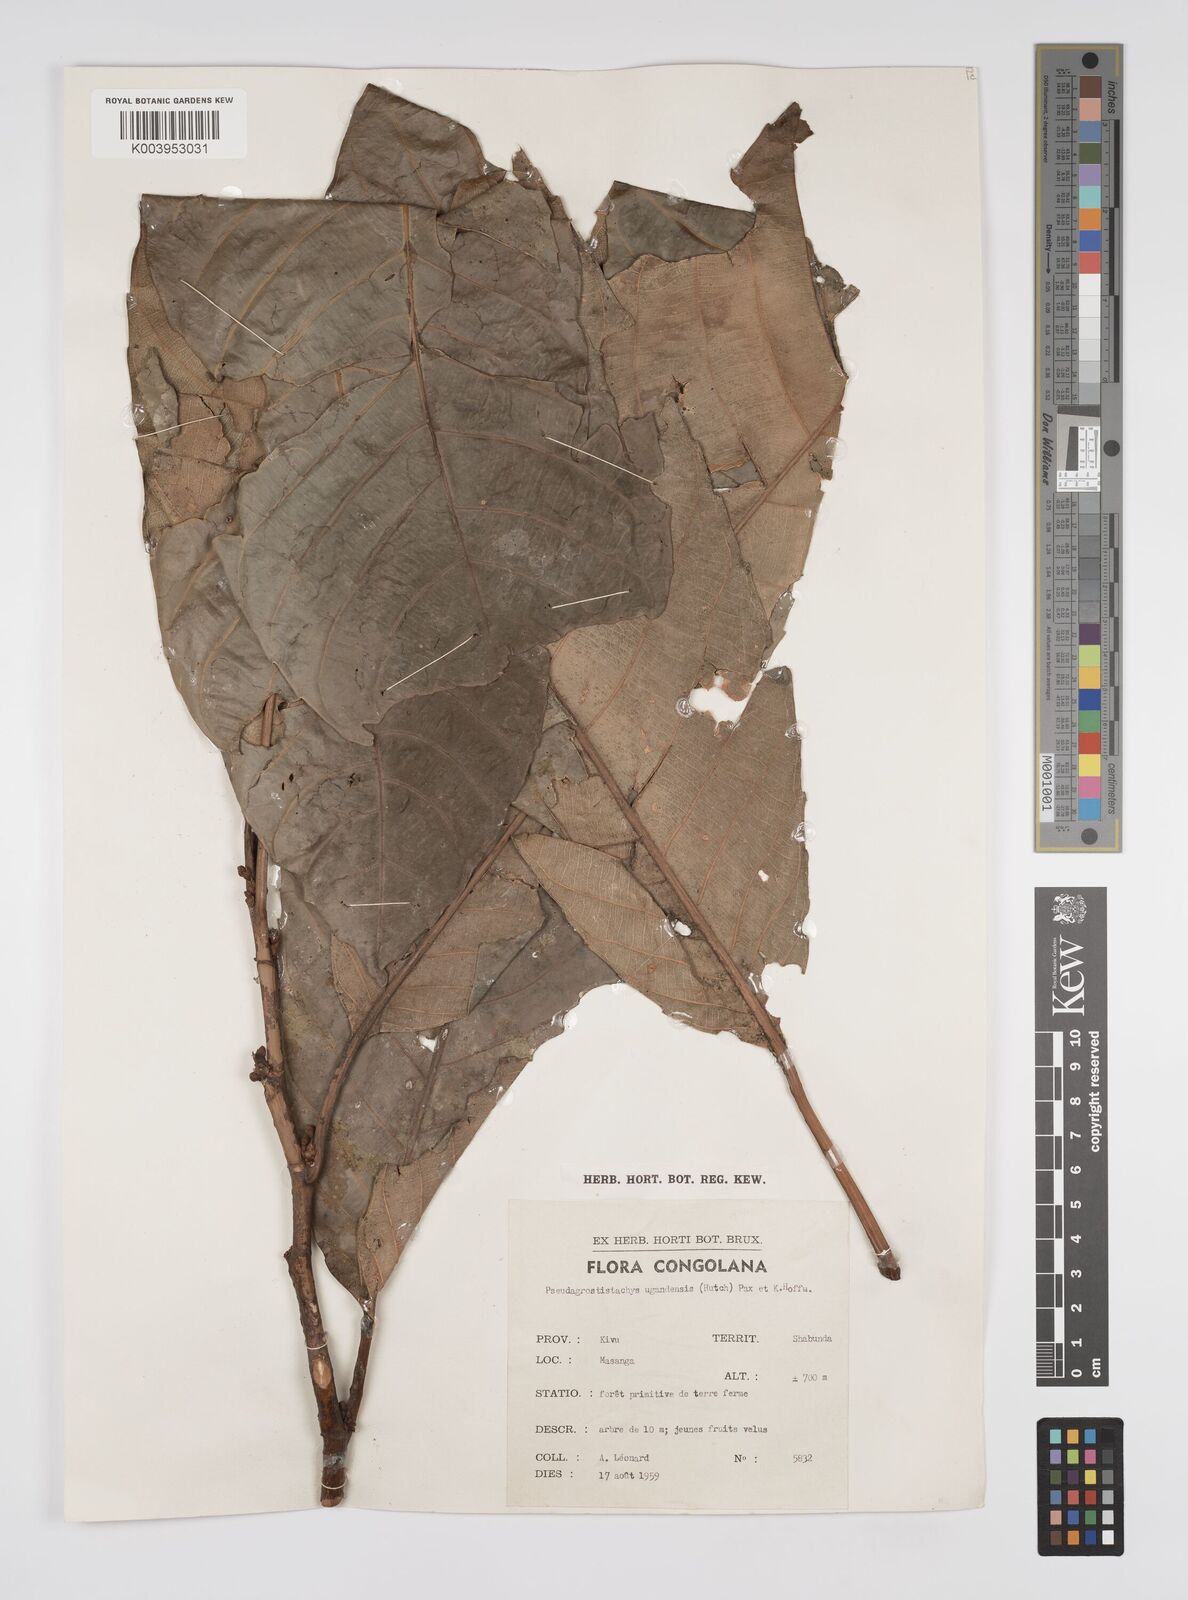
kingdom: Plantae
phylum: Tracheophyta
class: Magnoliopsida
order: Malpighiales
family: Euphorbiaceae
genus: Pseudagrostistachys
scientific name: Pseudagrostistachys ugandensis
